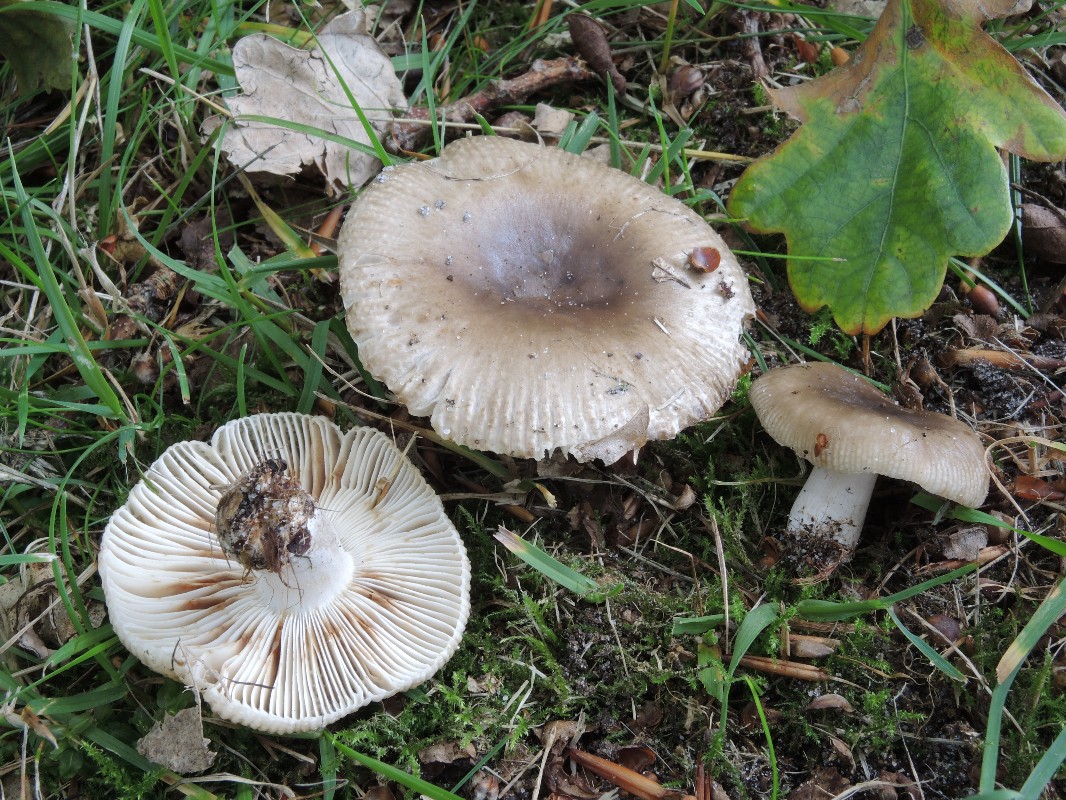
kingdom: Fungi
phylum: Basidiomycota
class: Agaricomycetes
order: Russulales
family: Russulaceae
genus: Russula
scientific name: Russula amoenolens
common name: skarp kam-skørhat
